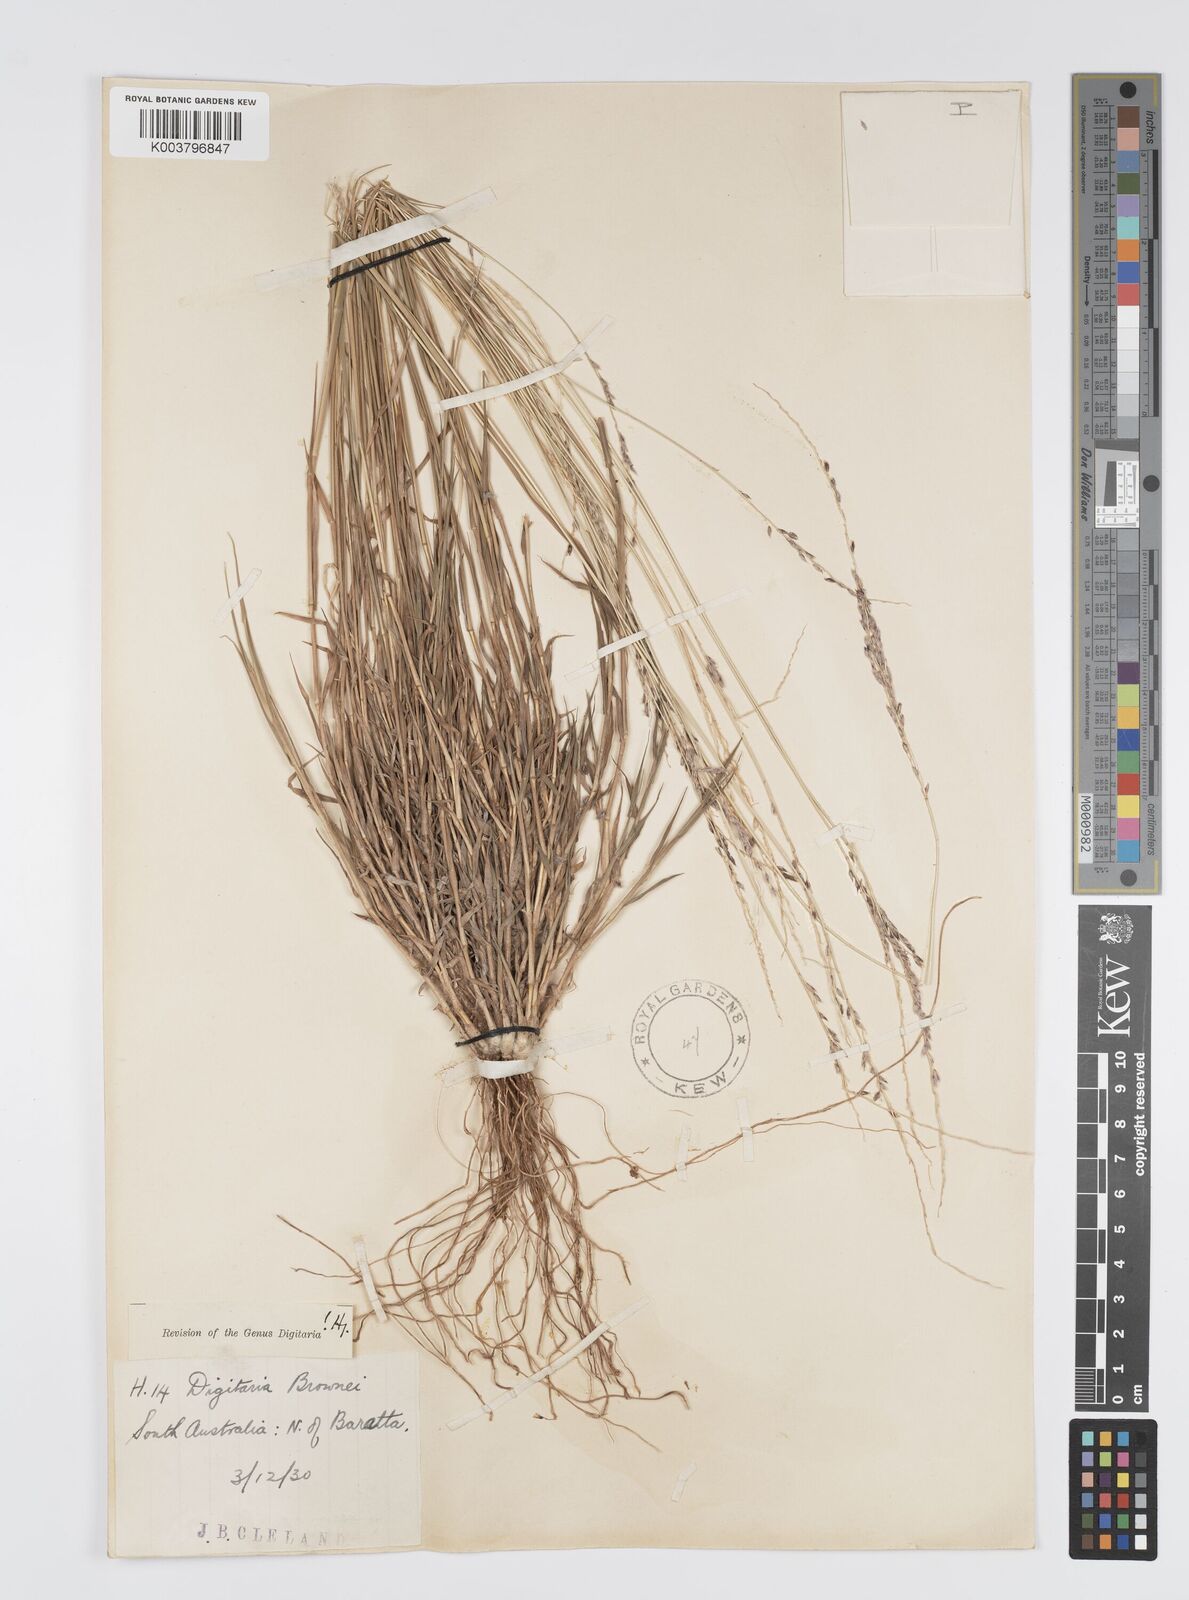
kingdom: Plantae
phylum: Tracheophyta
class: Liliopsida
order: Poales
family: Poaceae
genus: Digitaria
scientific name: Digitaria brownii
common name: Cotton grass
